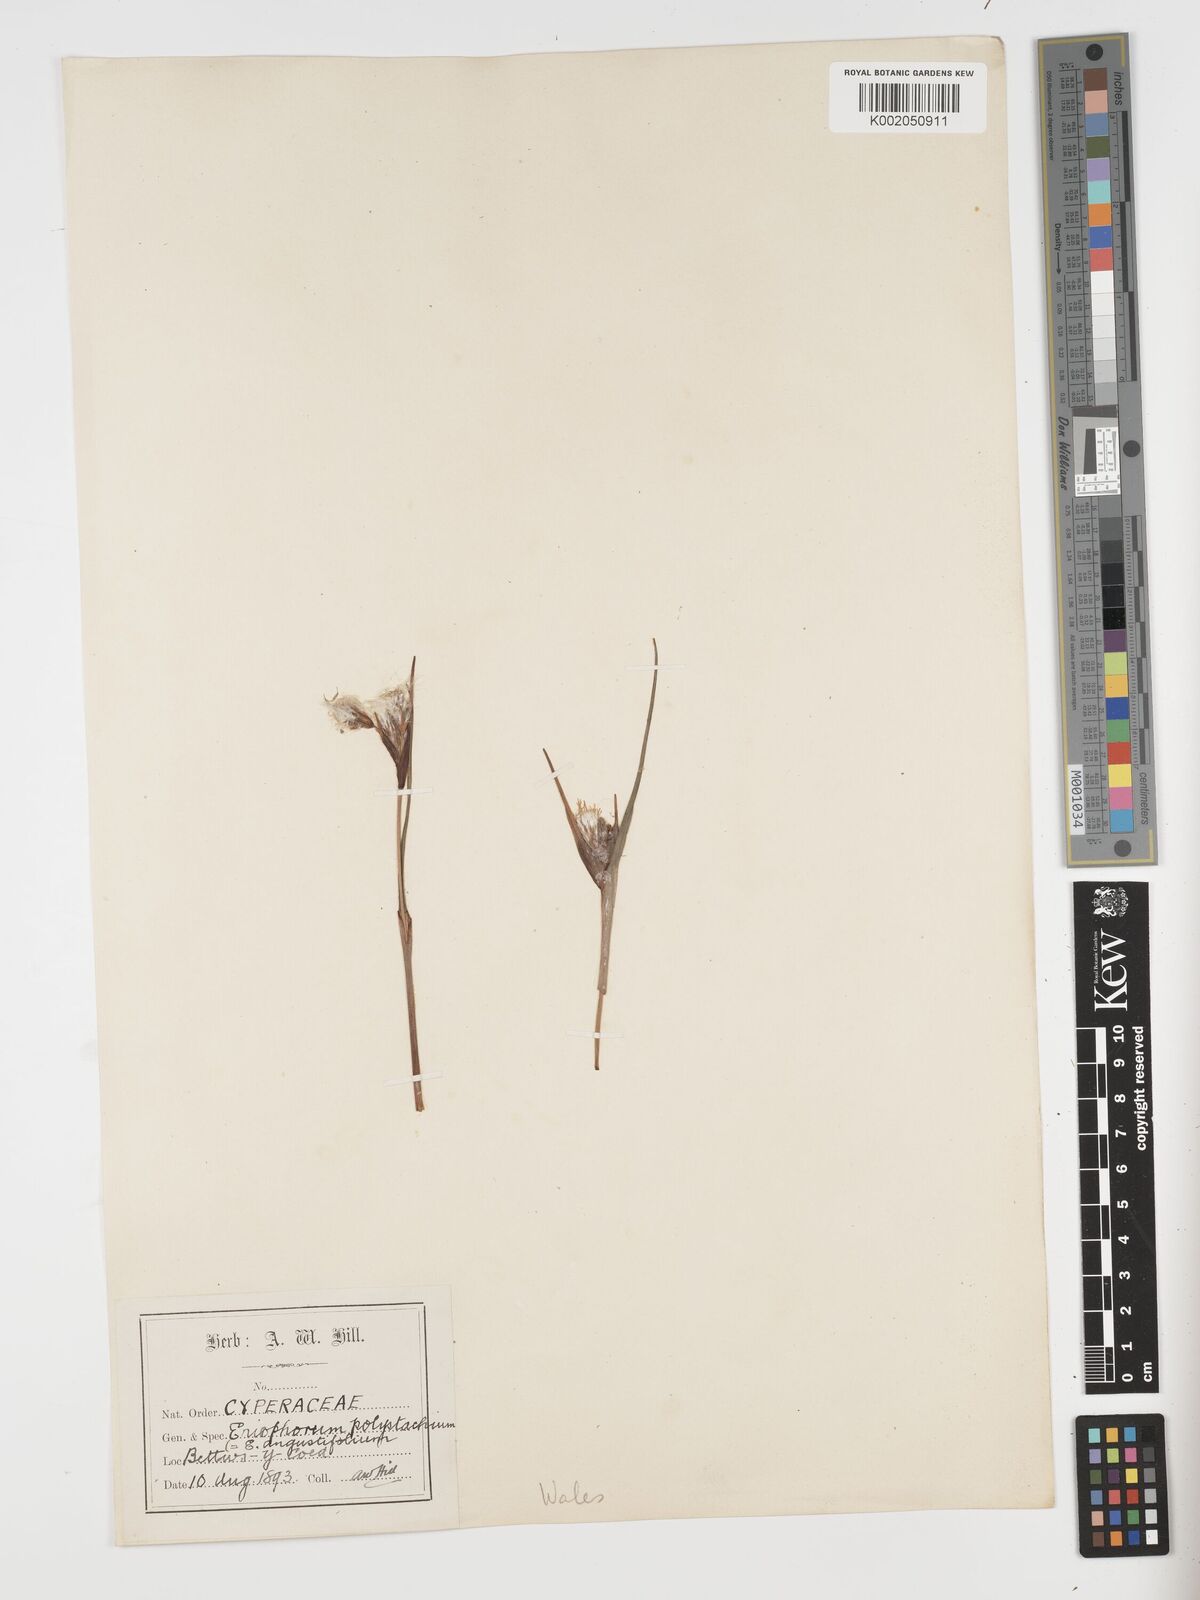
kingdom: Plantae
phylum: Tracheophyta
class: Liliopsida
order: Poales
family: Cyperaceae
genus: Eriophorum
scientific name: Eriophorum angustifolium
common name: Common cottongrass
